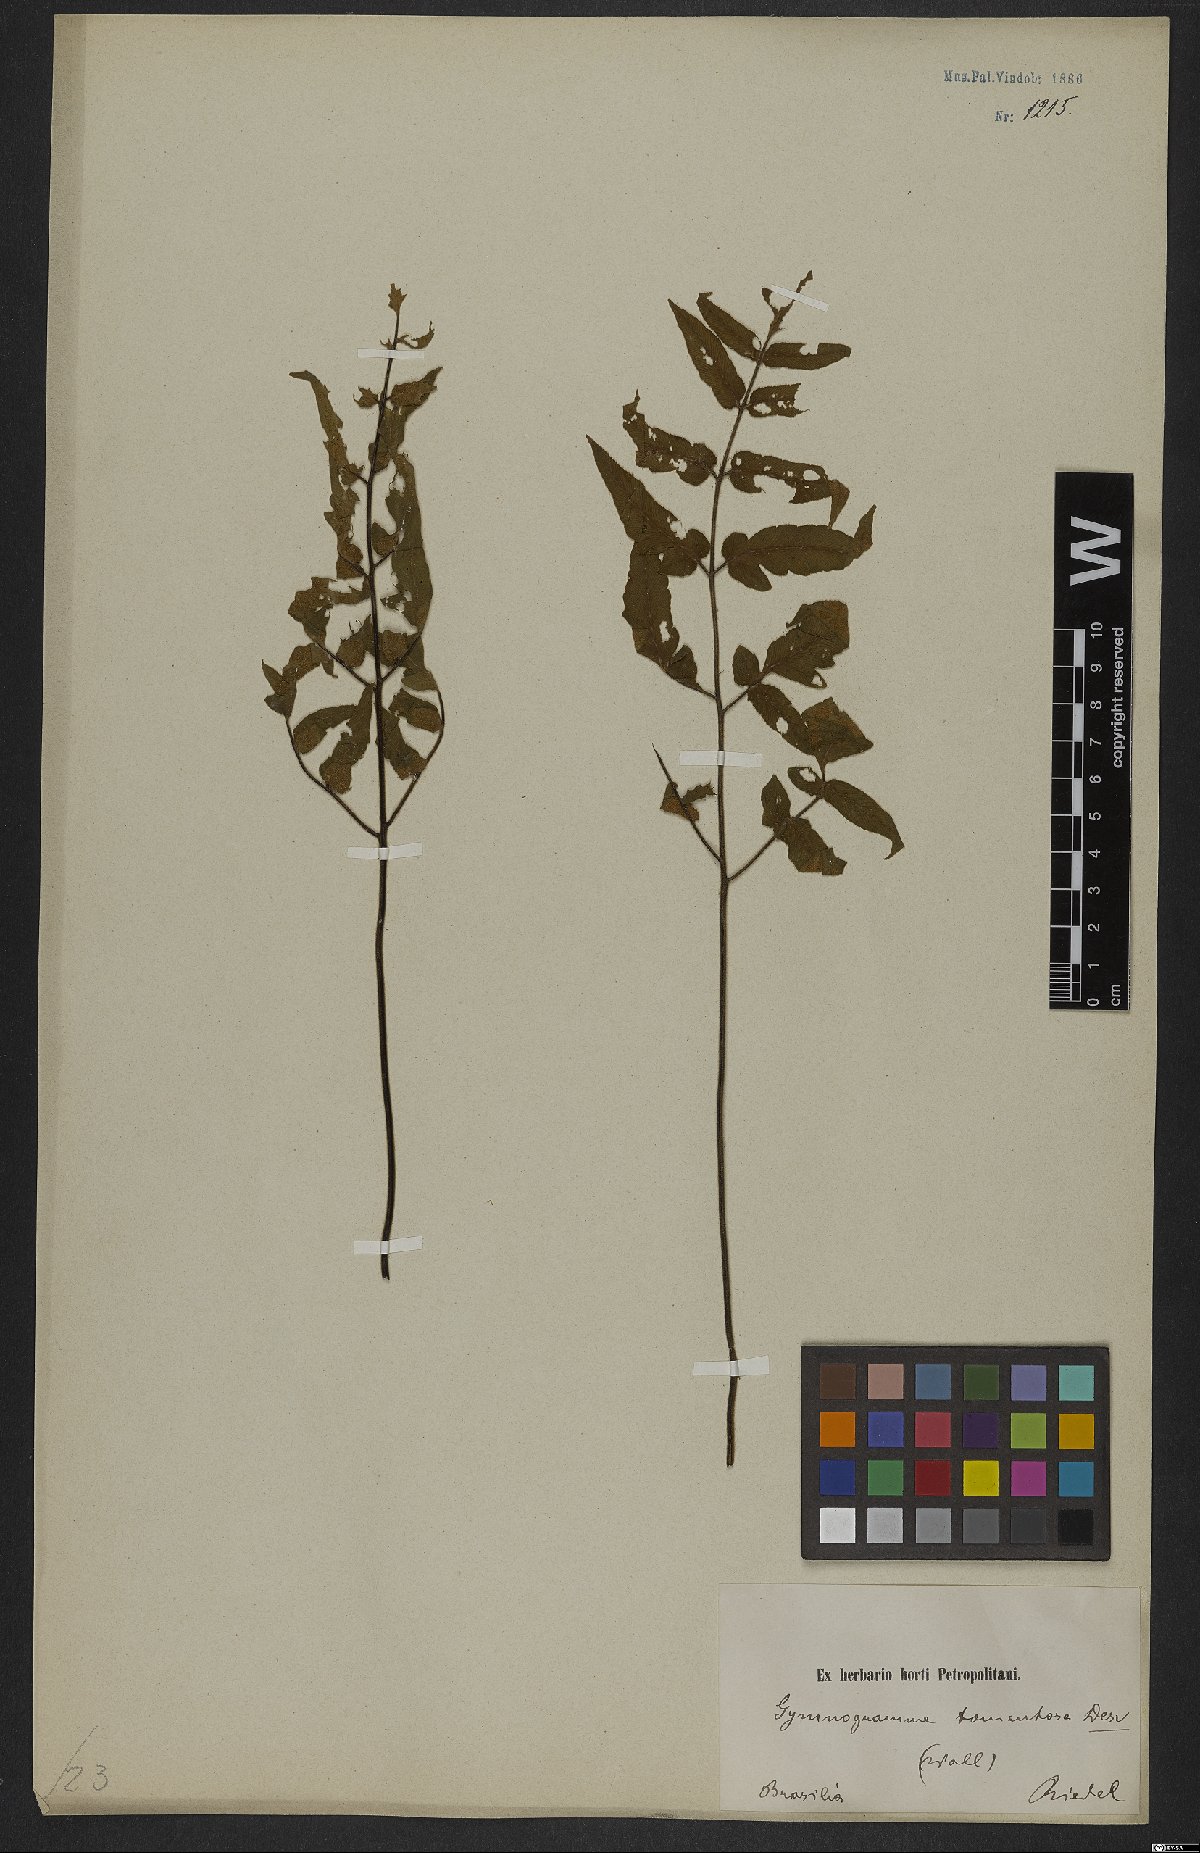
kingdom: Plantae
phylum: Tracheophyta
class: Polypodiopsida
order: Polypodiales
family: Pteridaceae
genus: Hemionitis
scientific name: Hemionitis tomentosa
